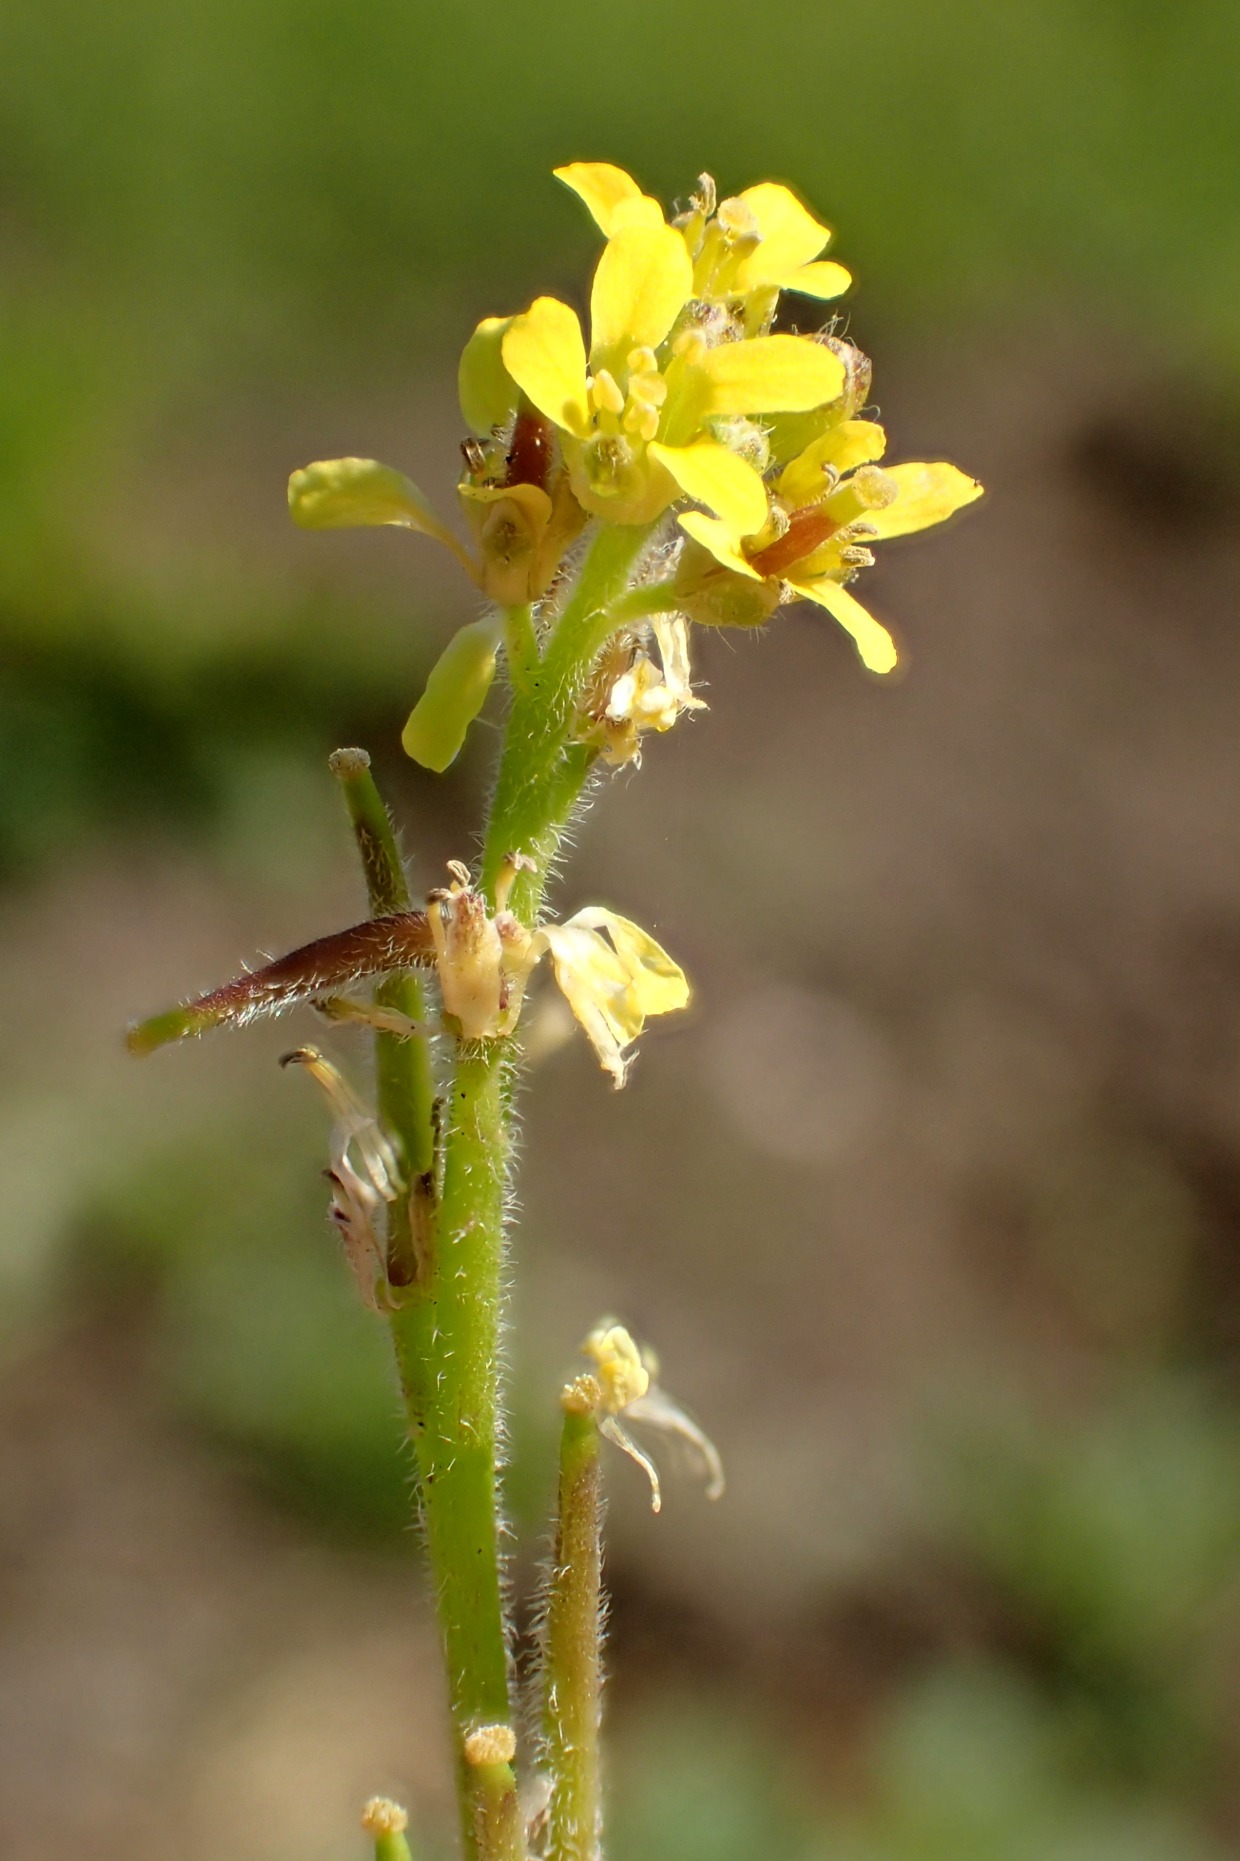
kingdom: Plantae
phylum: Tracheophyta
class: Magnoliopsida
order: Brassicales
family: Brassicaceae
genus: Sisymbrium
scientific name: Sisymbrium officinale
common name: Rank vejsennep
